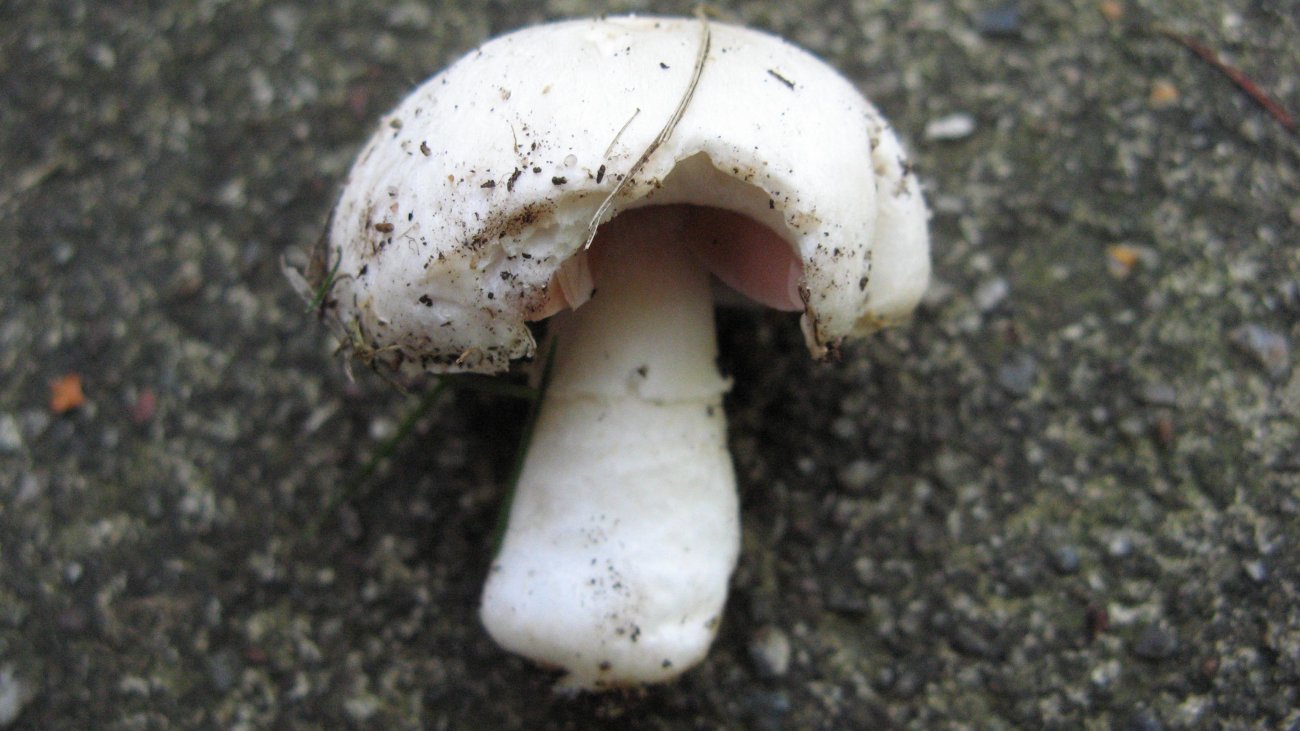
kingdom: Fungi
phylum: Basidiomycota
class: Agaricomycetes
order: Agaricales
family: Agaricaceae
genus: Agaricus
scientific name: Agaricus campestris
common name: mark-champignon
